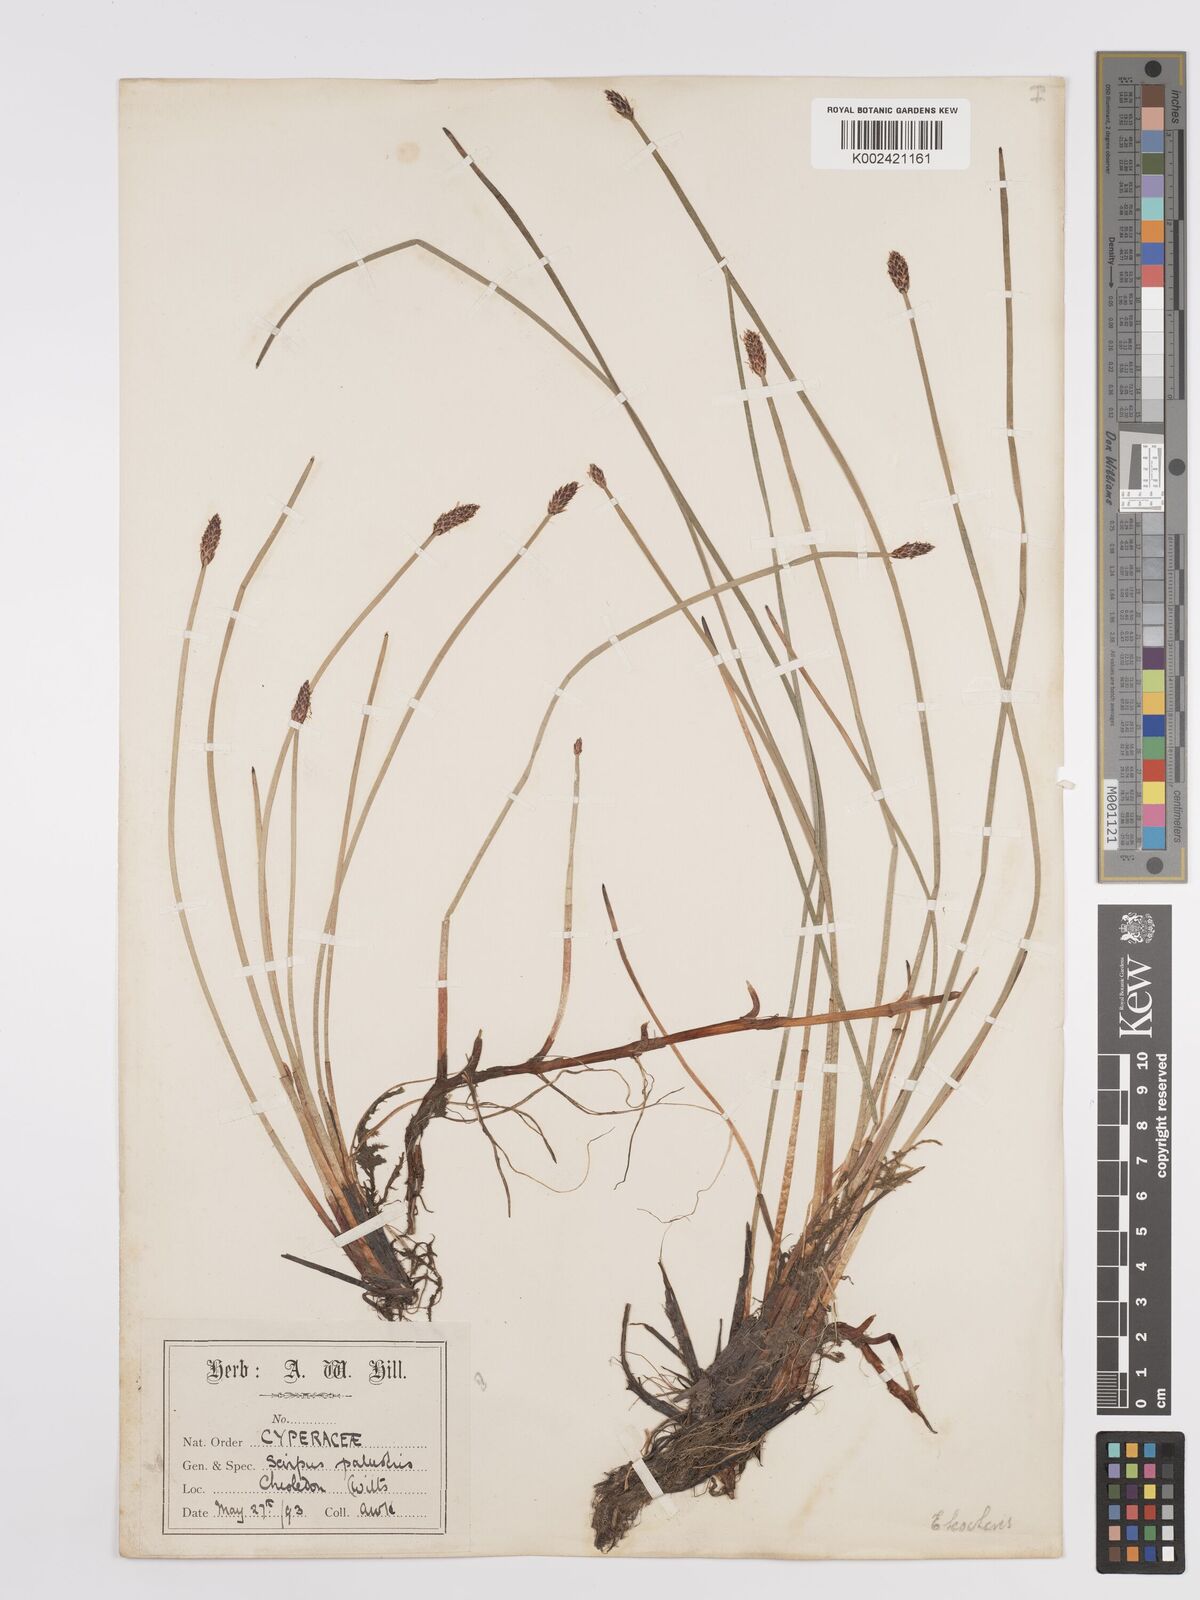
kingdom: Plantae
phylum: Tracheophyta
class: Liliopsida
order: Poales
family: Cyperaceae
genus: Eleocharis
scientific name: Eleocharis palustris
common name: Common spike-rush
